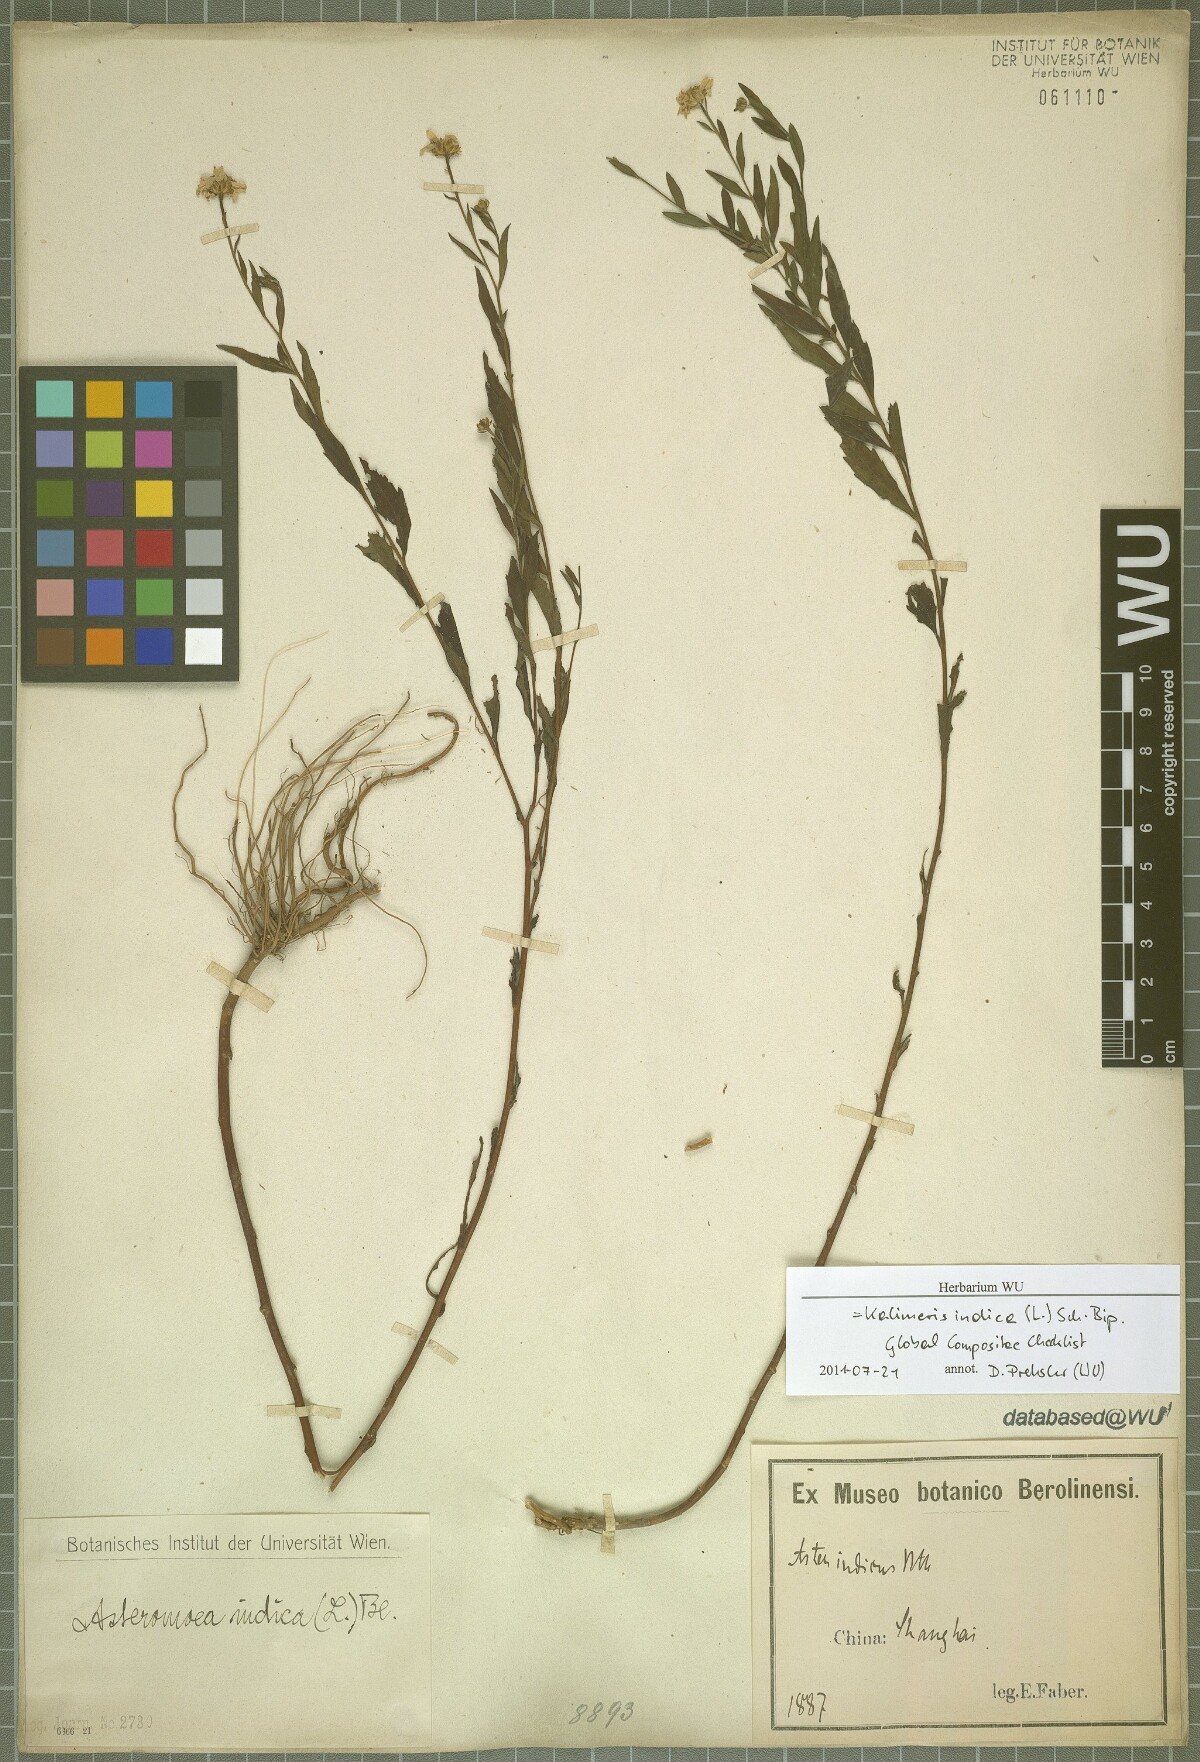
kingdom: Plantae
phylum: Tracheophyta
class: Magnoliopsida
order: Asterales
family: Asteraceae
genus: Kalimeris
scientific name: Kalimeris indica
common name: Indian aster
